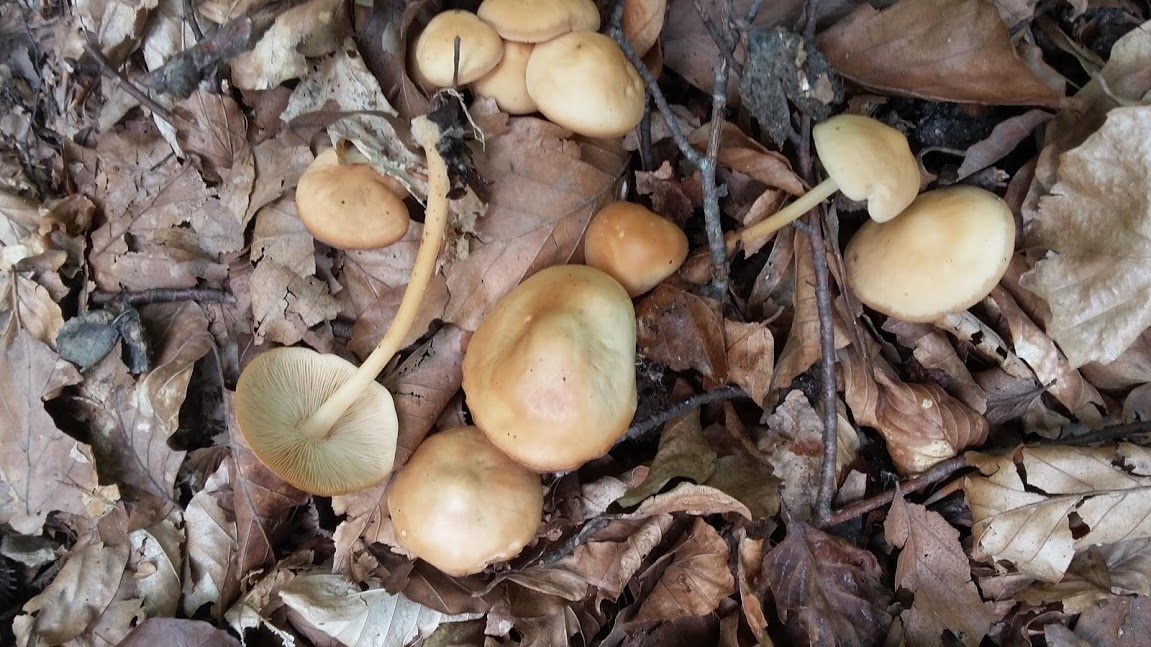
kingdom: Fungi
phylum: Basidiomycota
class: Agaricomycetes
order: Agaricales
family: Omphalotaceae
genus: Gymnopus
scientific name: Gymnopus aquosus
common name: bleg fladhat
